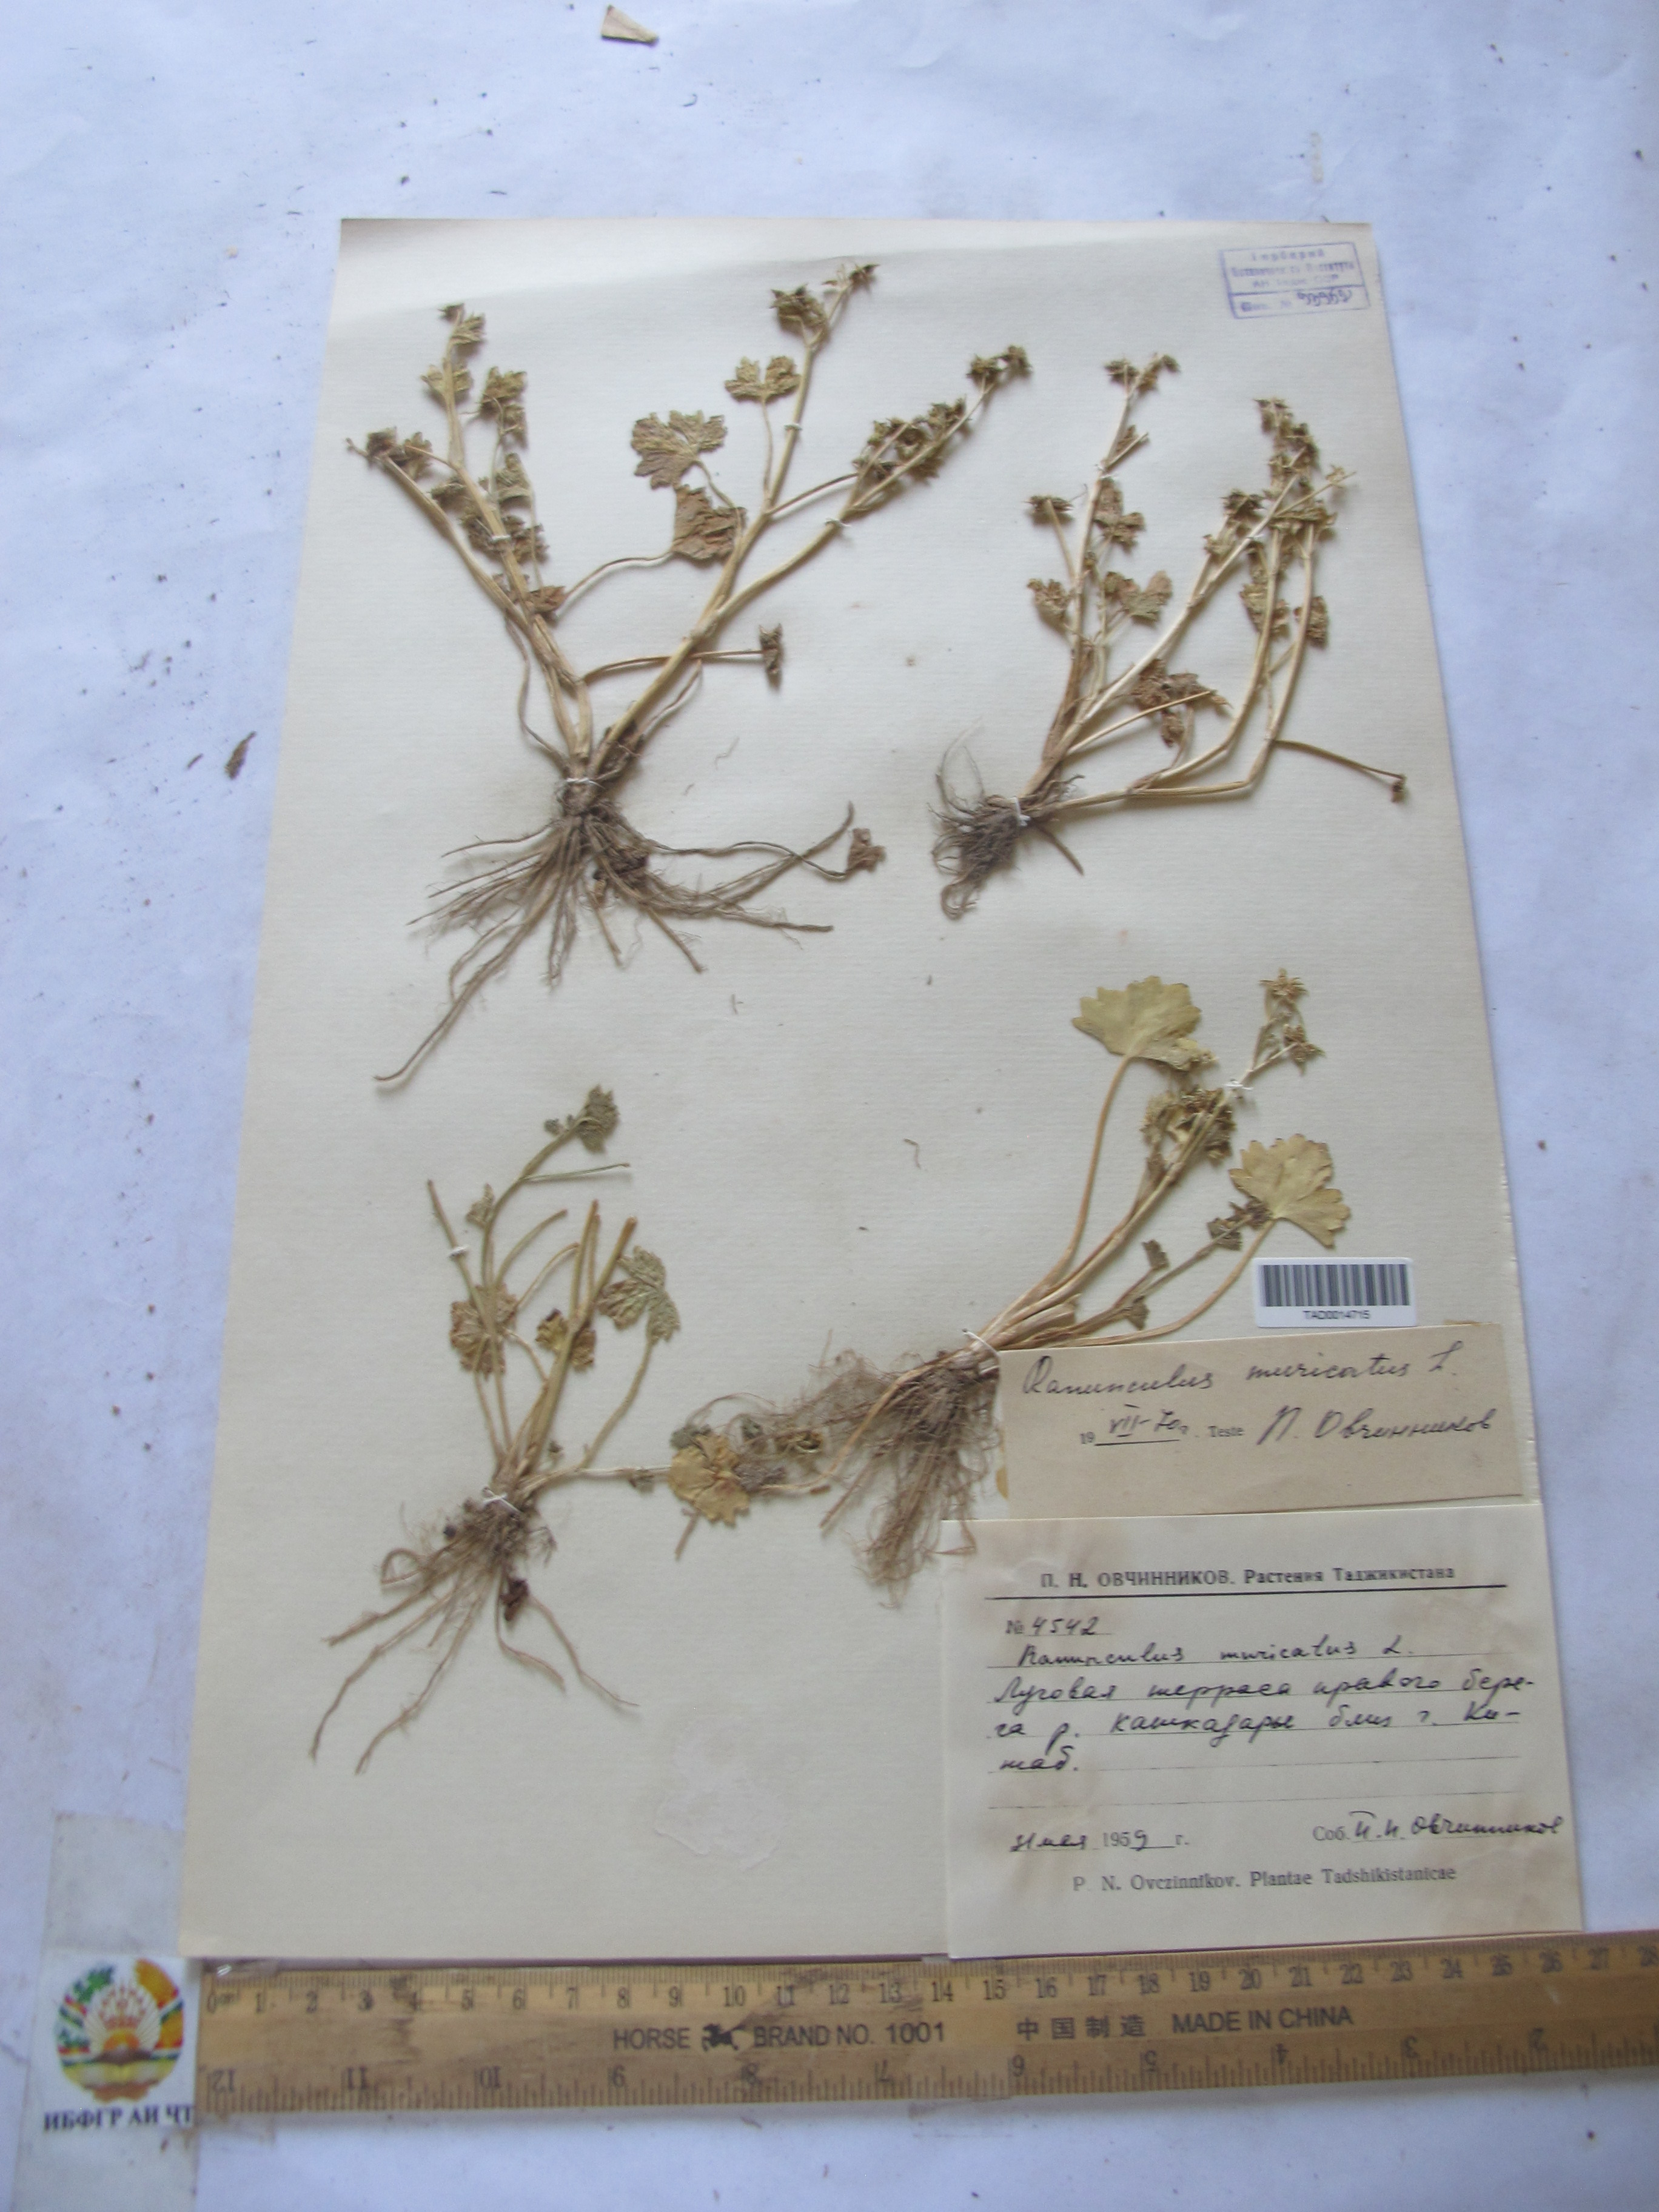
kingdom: Plantae
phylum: Tracheophyta
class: Magnoliopsida
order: Ranunculales
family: Ranunculaceae
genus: Ranunculus
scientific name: Ranunculus muricatus
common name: Rough-fruited buttercup
